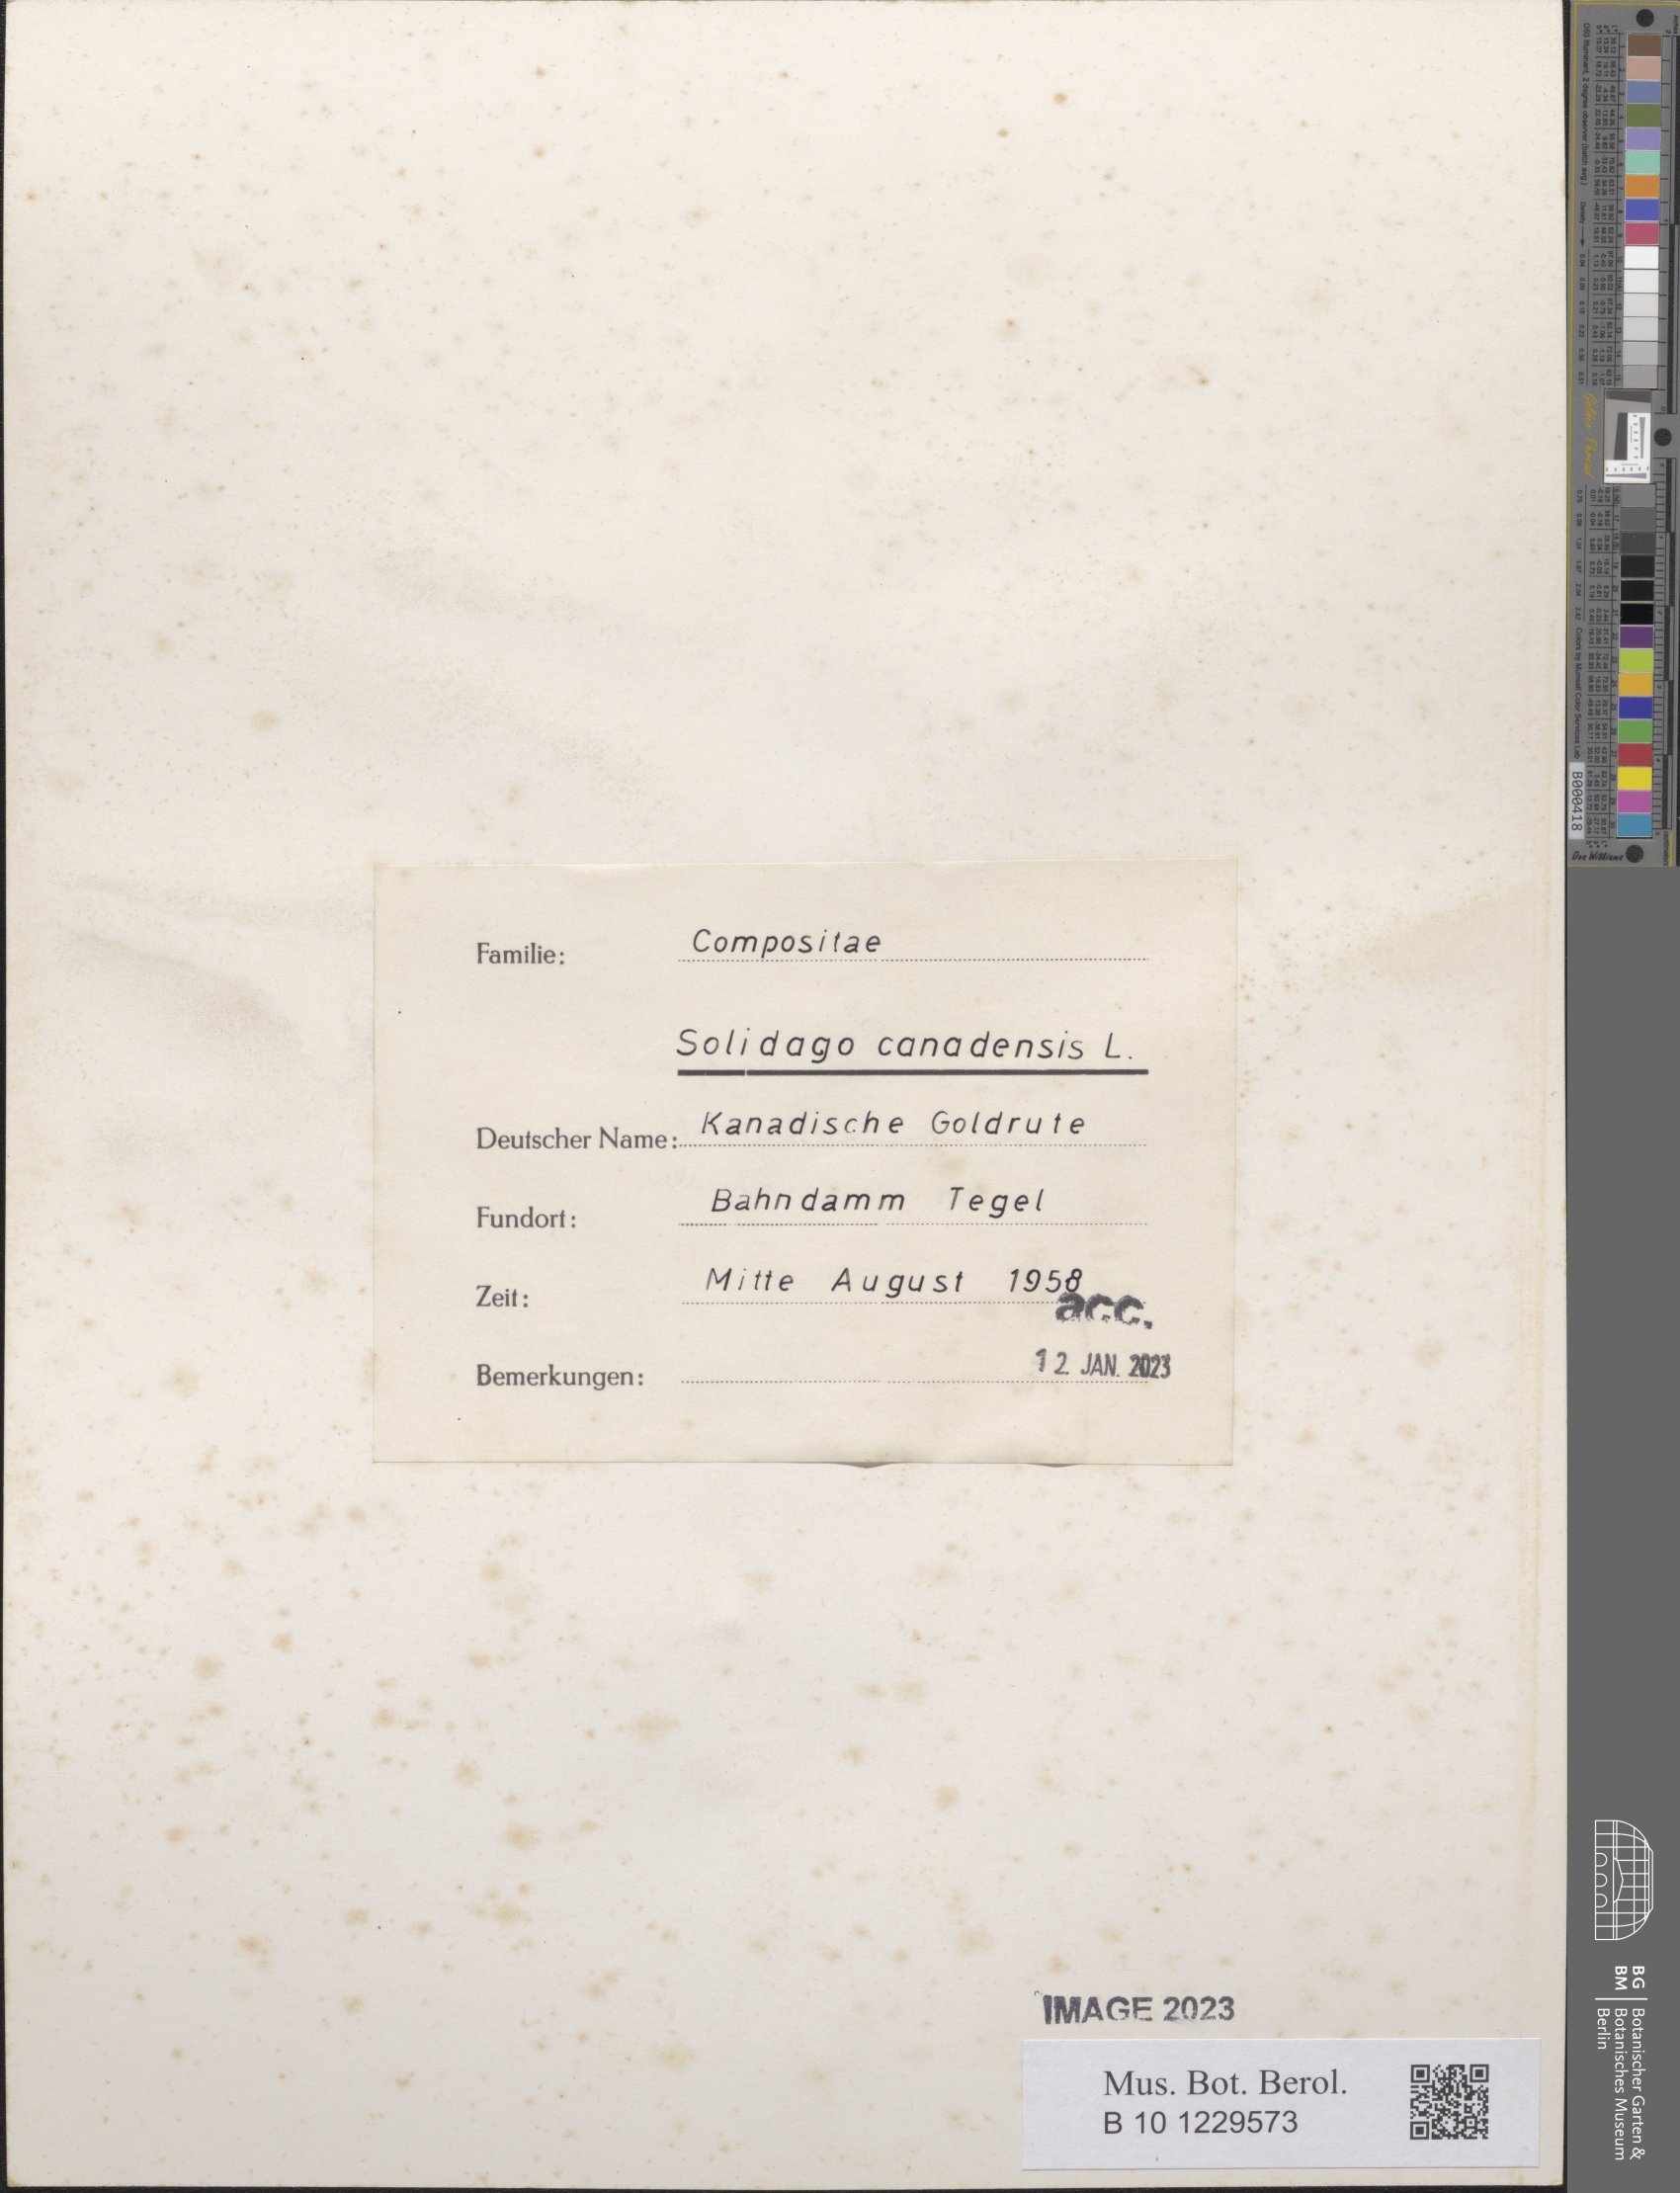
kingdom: Plantae
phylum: Tracheophyta
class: Magnoliopsida
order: Asterales
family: Asteraceae
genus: Solidago
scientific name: Solidago canadensis
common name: Canada goldenrod
